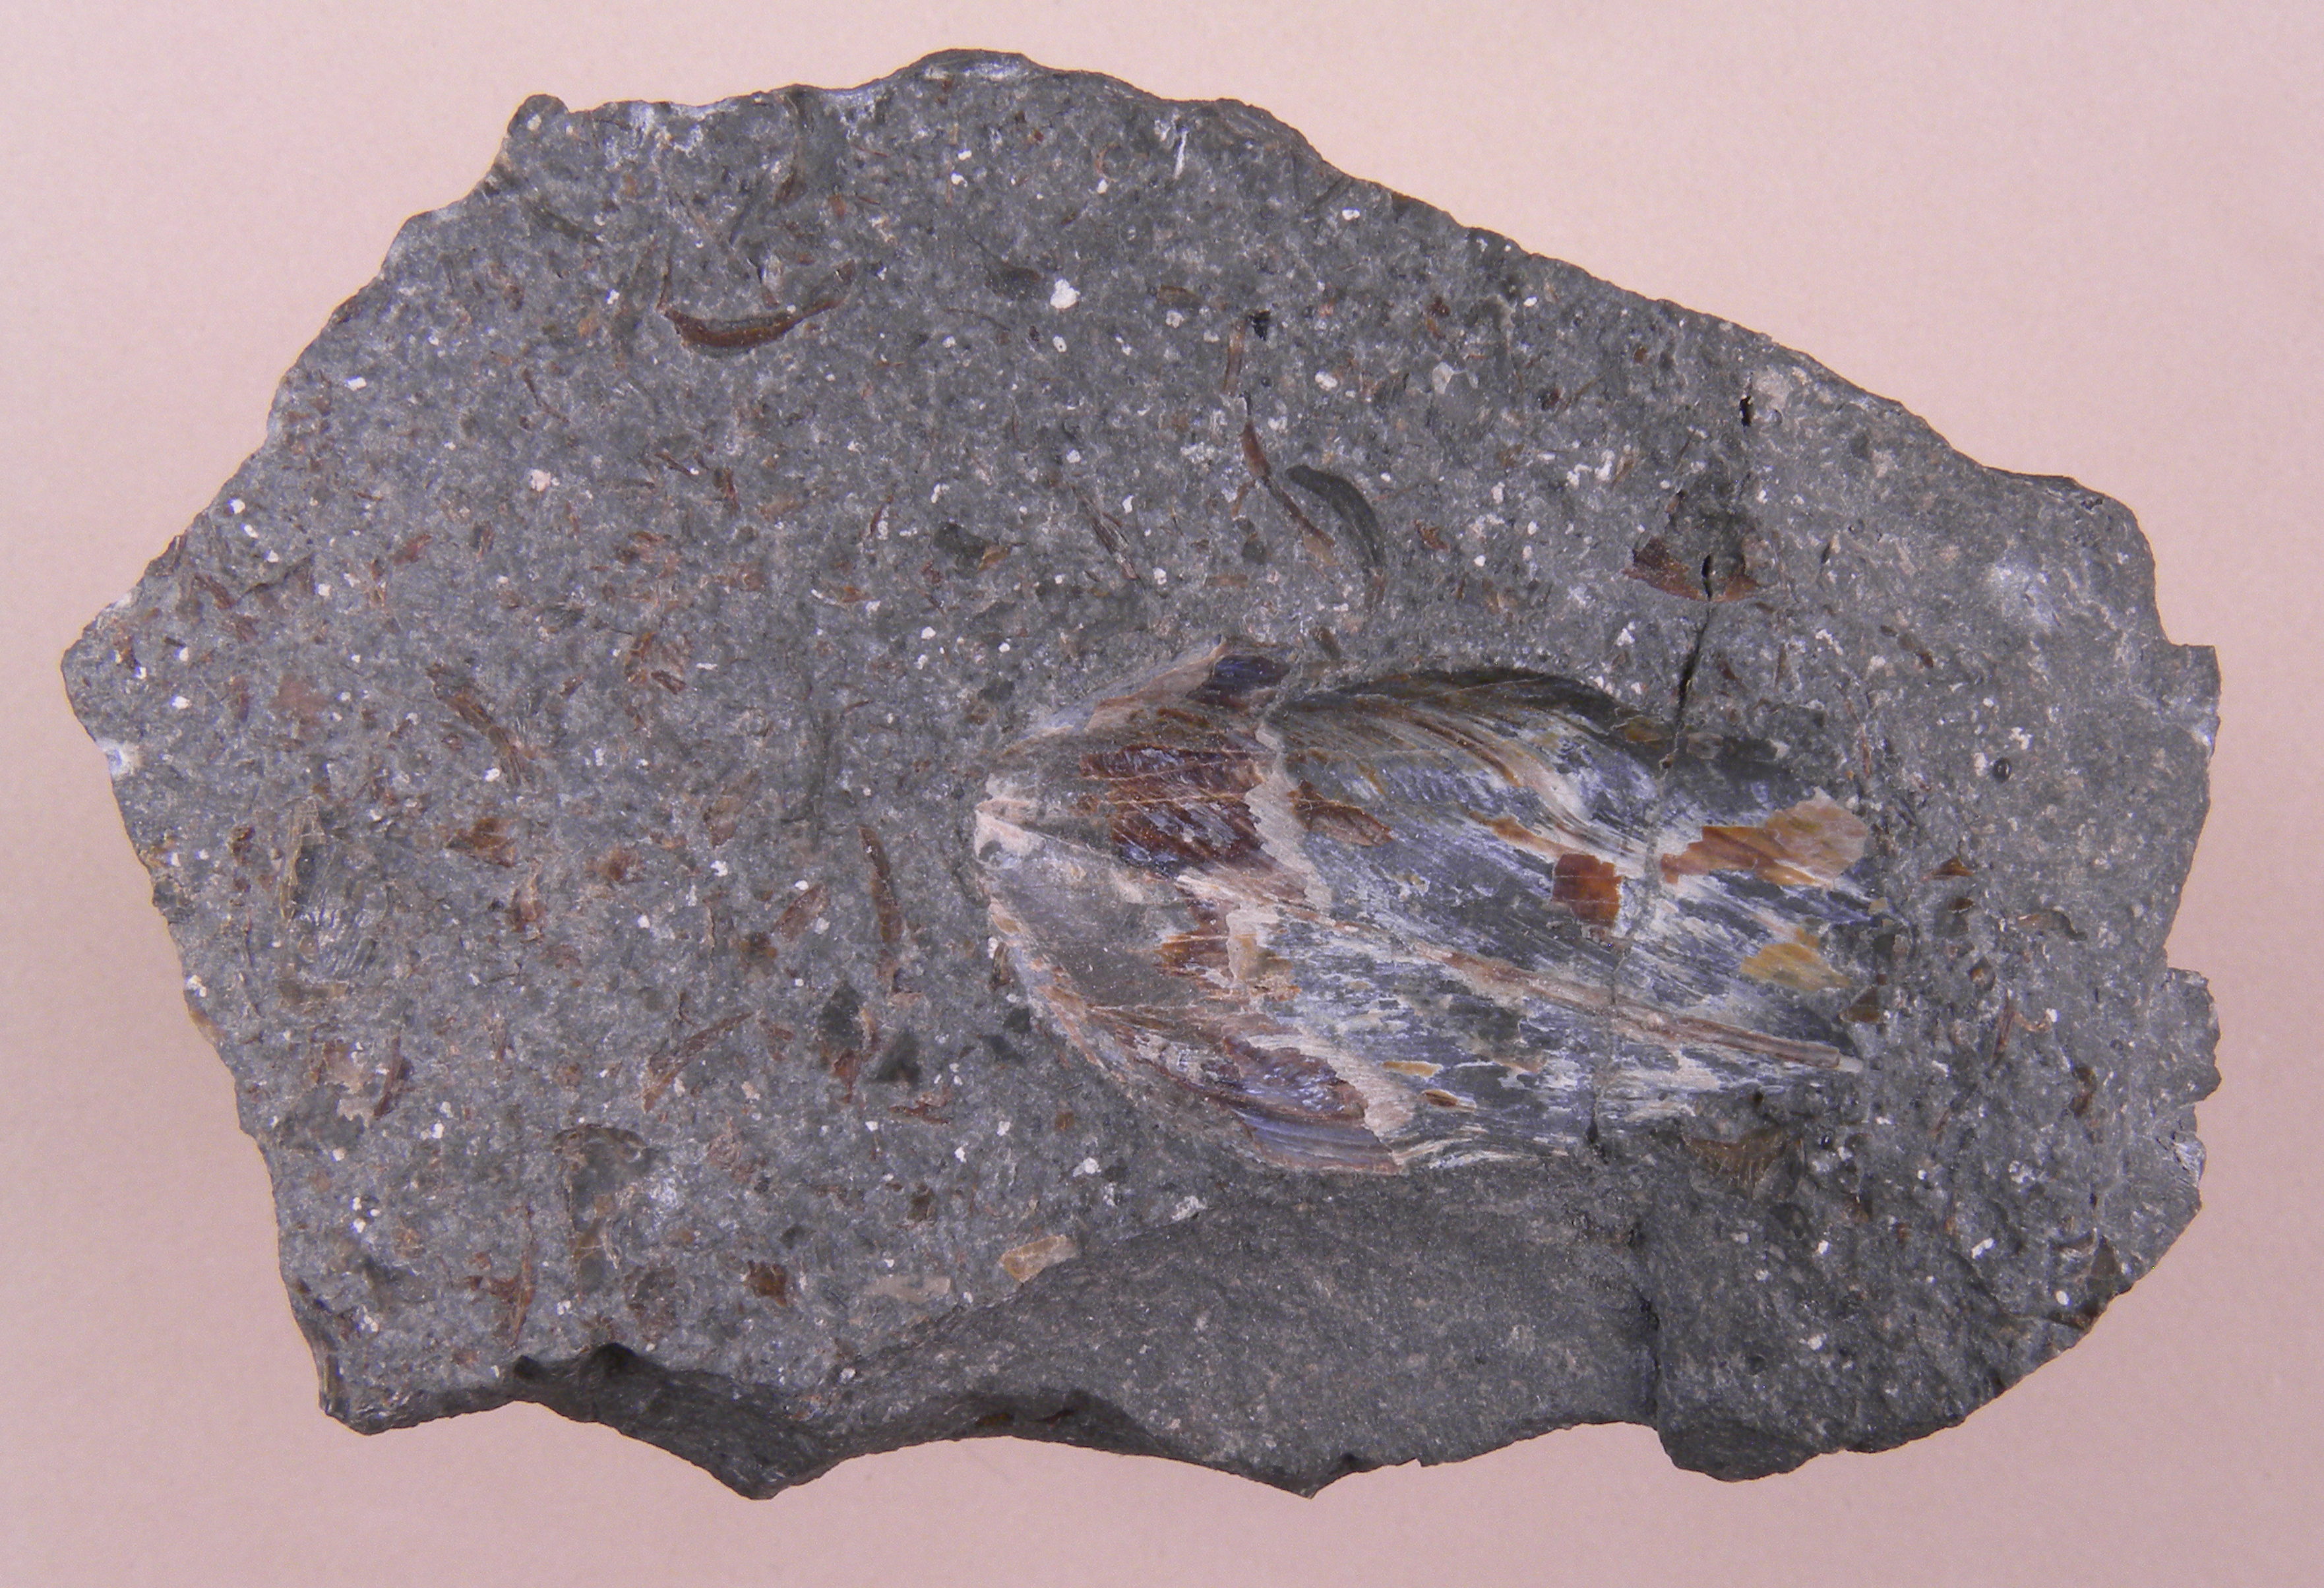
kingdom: Animalia
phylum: Mollusca
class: Cephalopoda
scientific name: Cephalopoda
